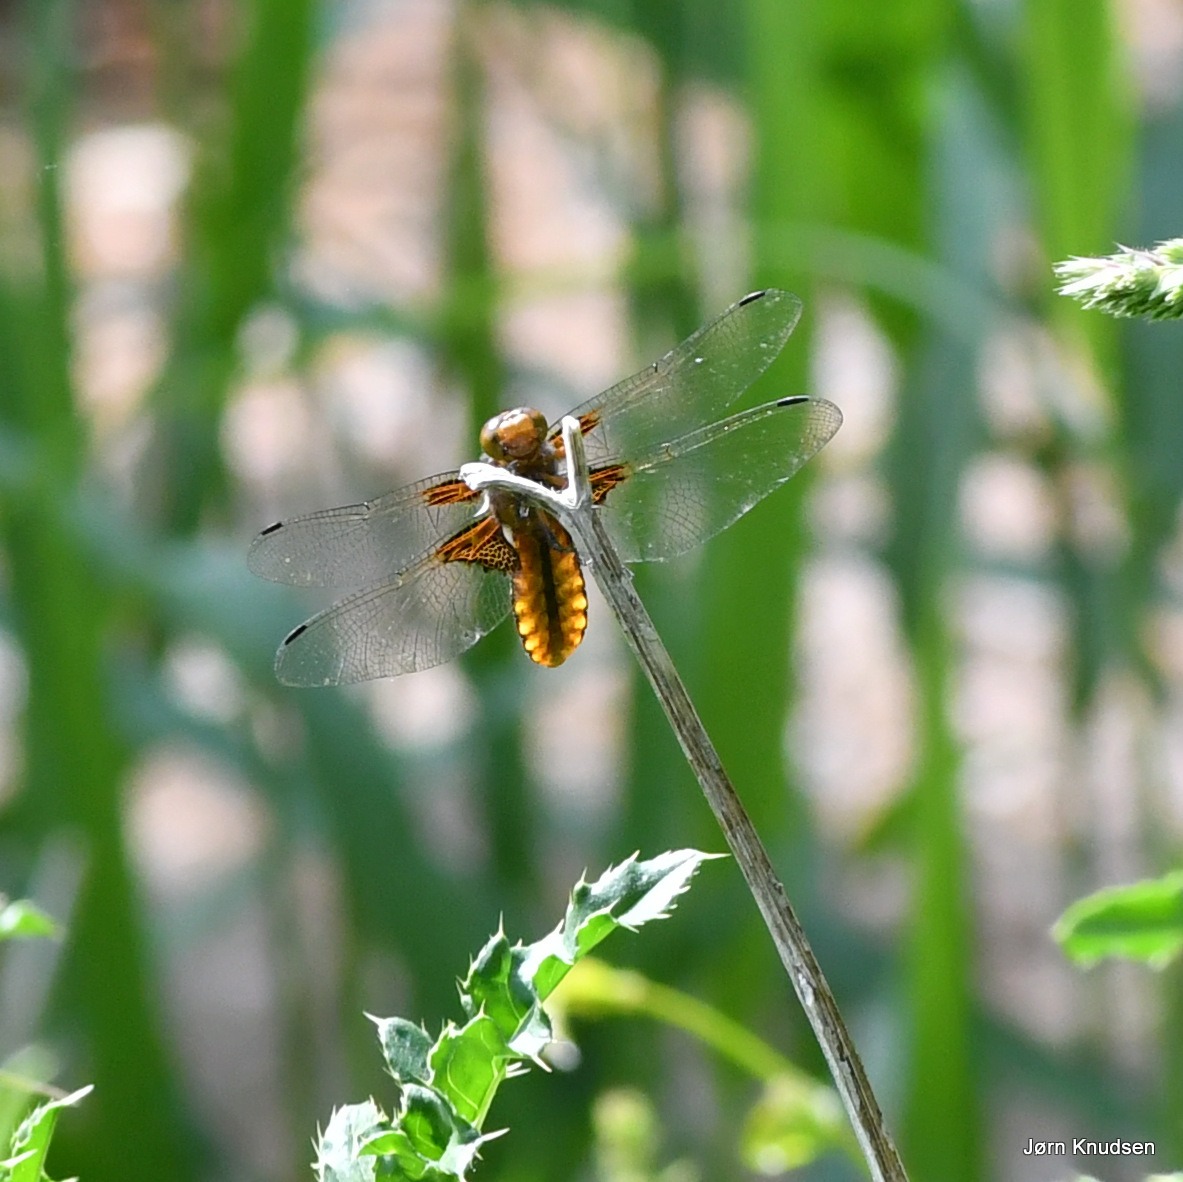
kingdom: Animalia
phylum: Arthropoda
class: Insecta
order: Odonata
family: Libellulidae
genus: Libellula
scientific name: Libellula depressa
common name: Blå libel
